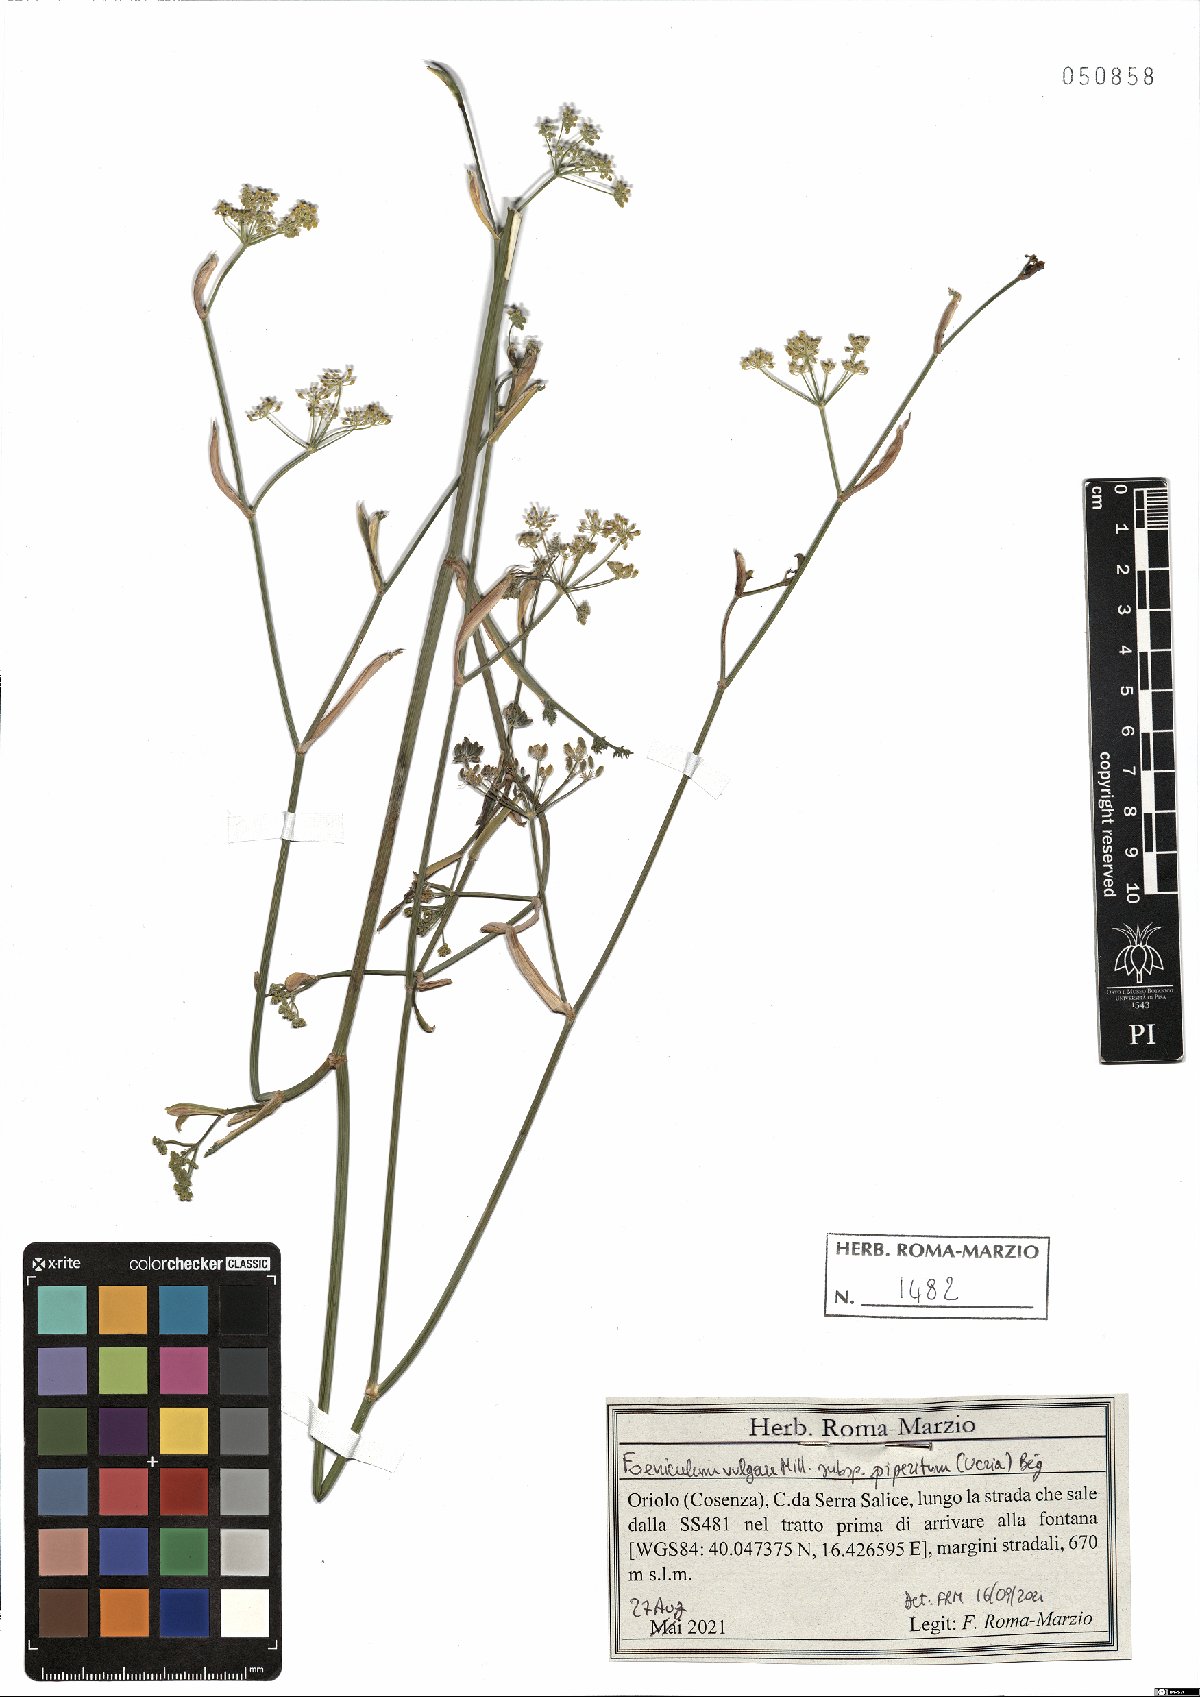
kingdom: Plantae
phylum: Tracheophyta
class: Magnoliopsida
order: Apiales
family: Apiaceae
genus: Foeniculum
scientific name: Foeniculum vulgare
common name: Fennel
